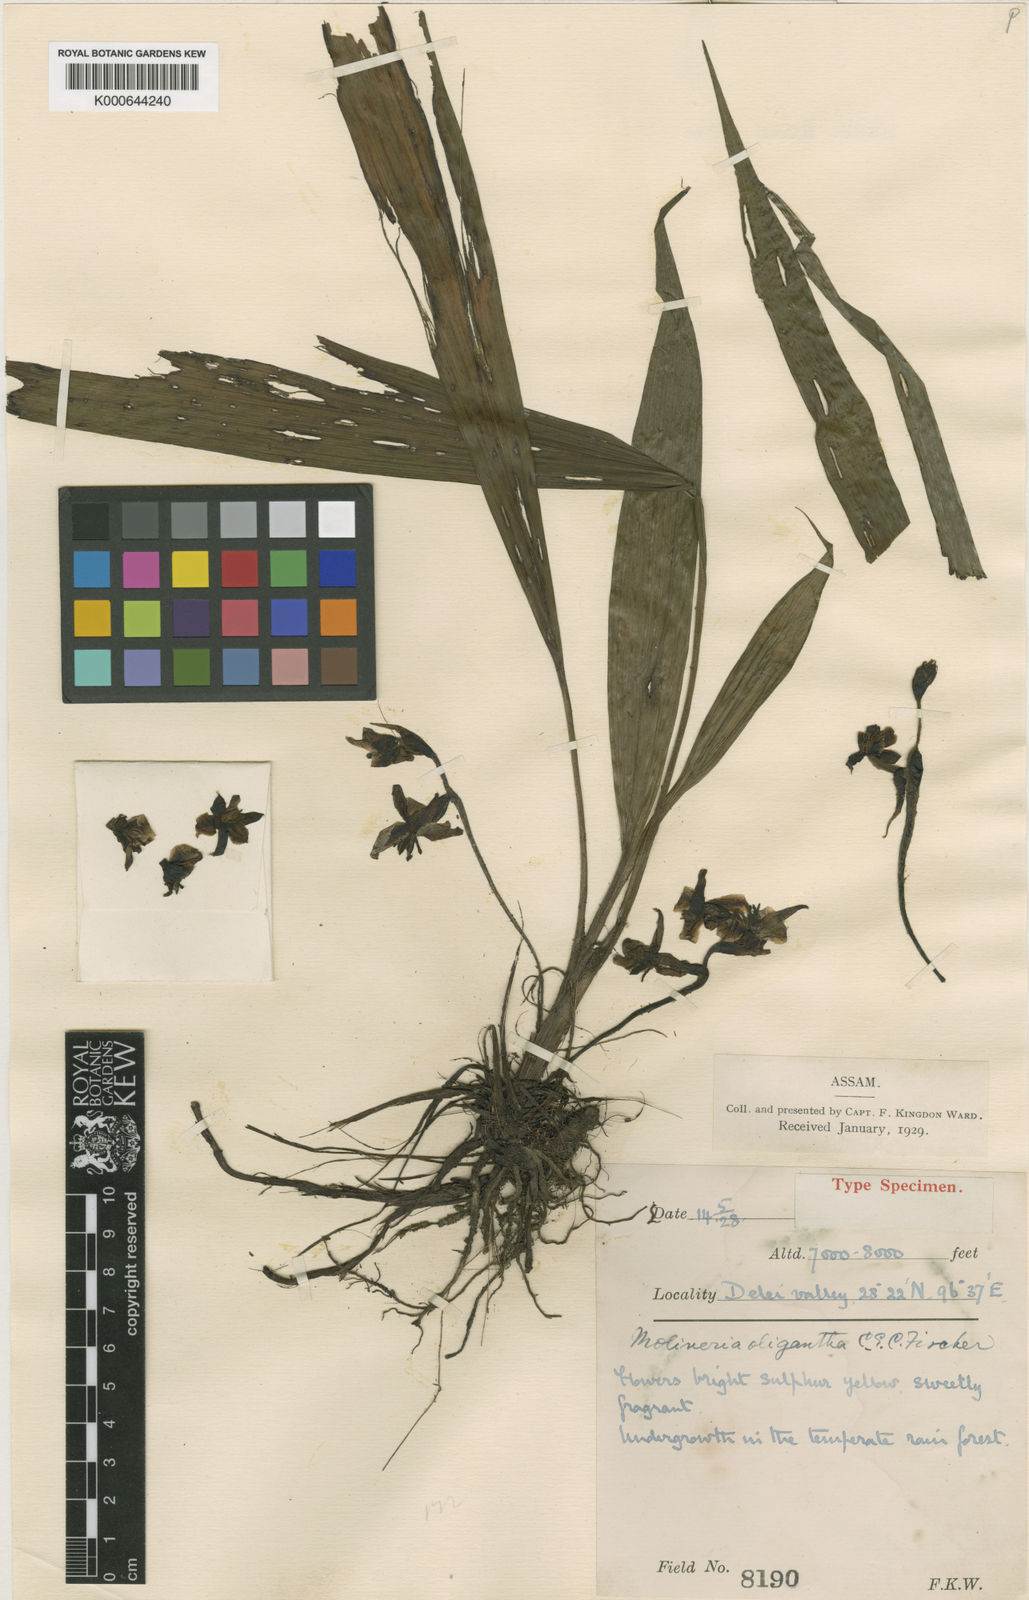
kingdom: Plantae
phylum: Tracheophyta
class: Liliopsida
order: Asparagales
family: Hypoxidaceae
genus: Curculigo
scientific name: Curculigo oligantha
